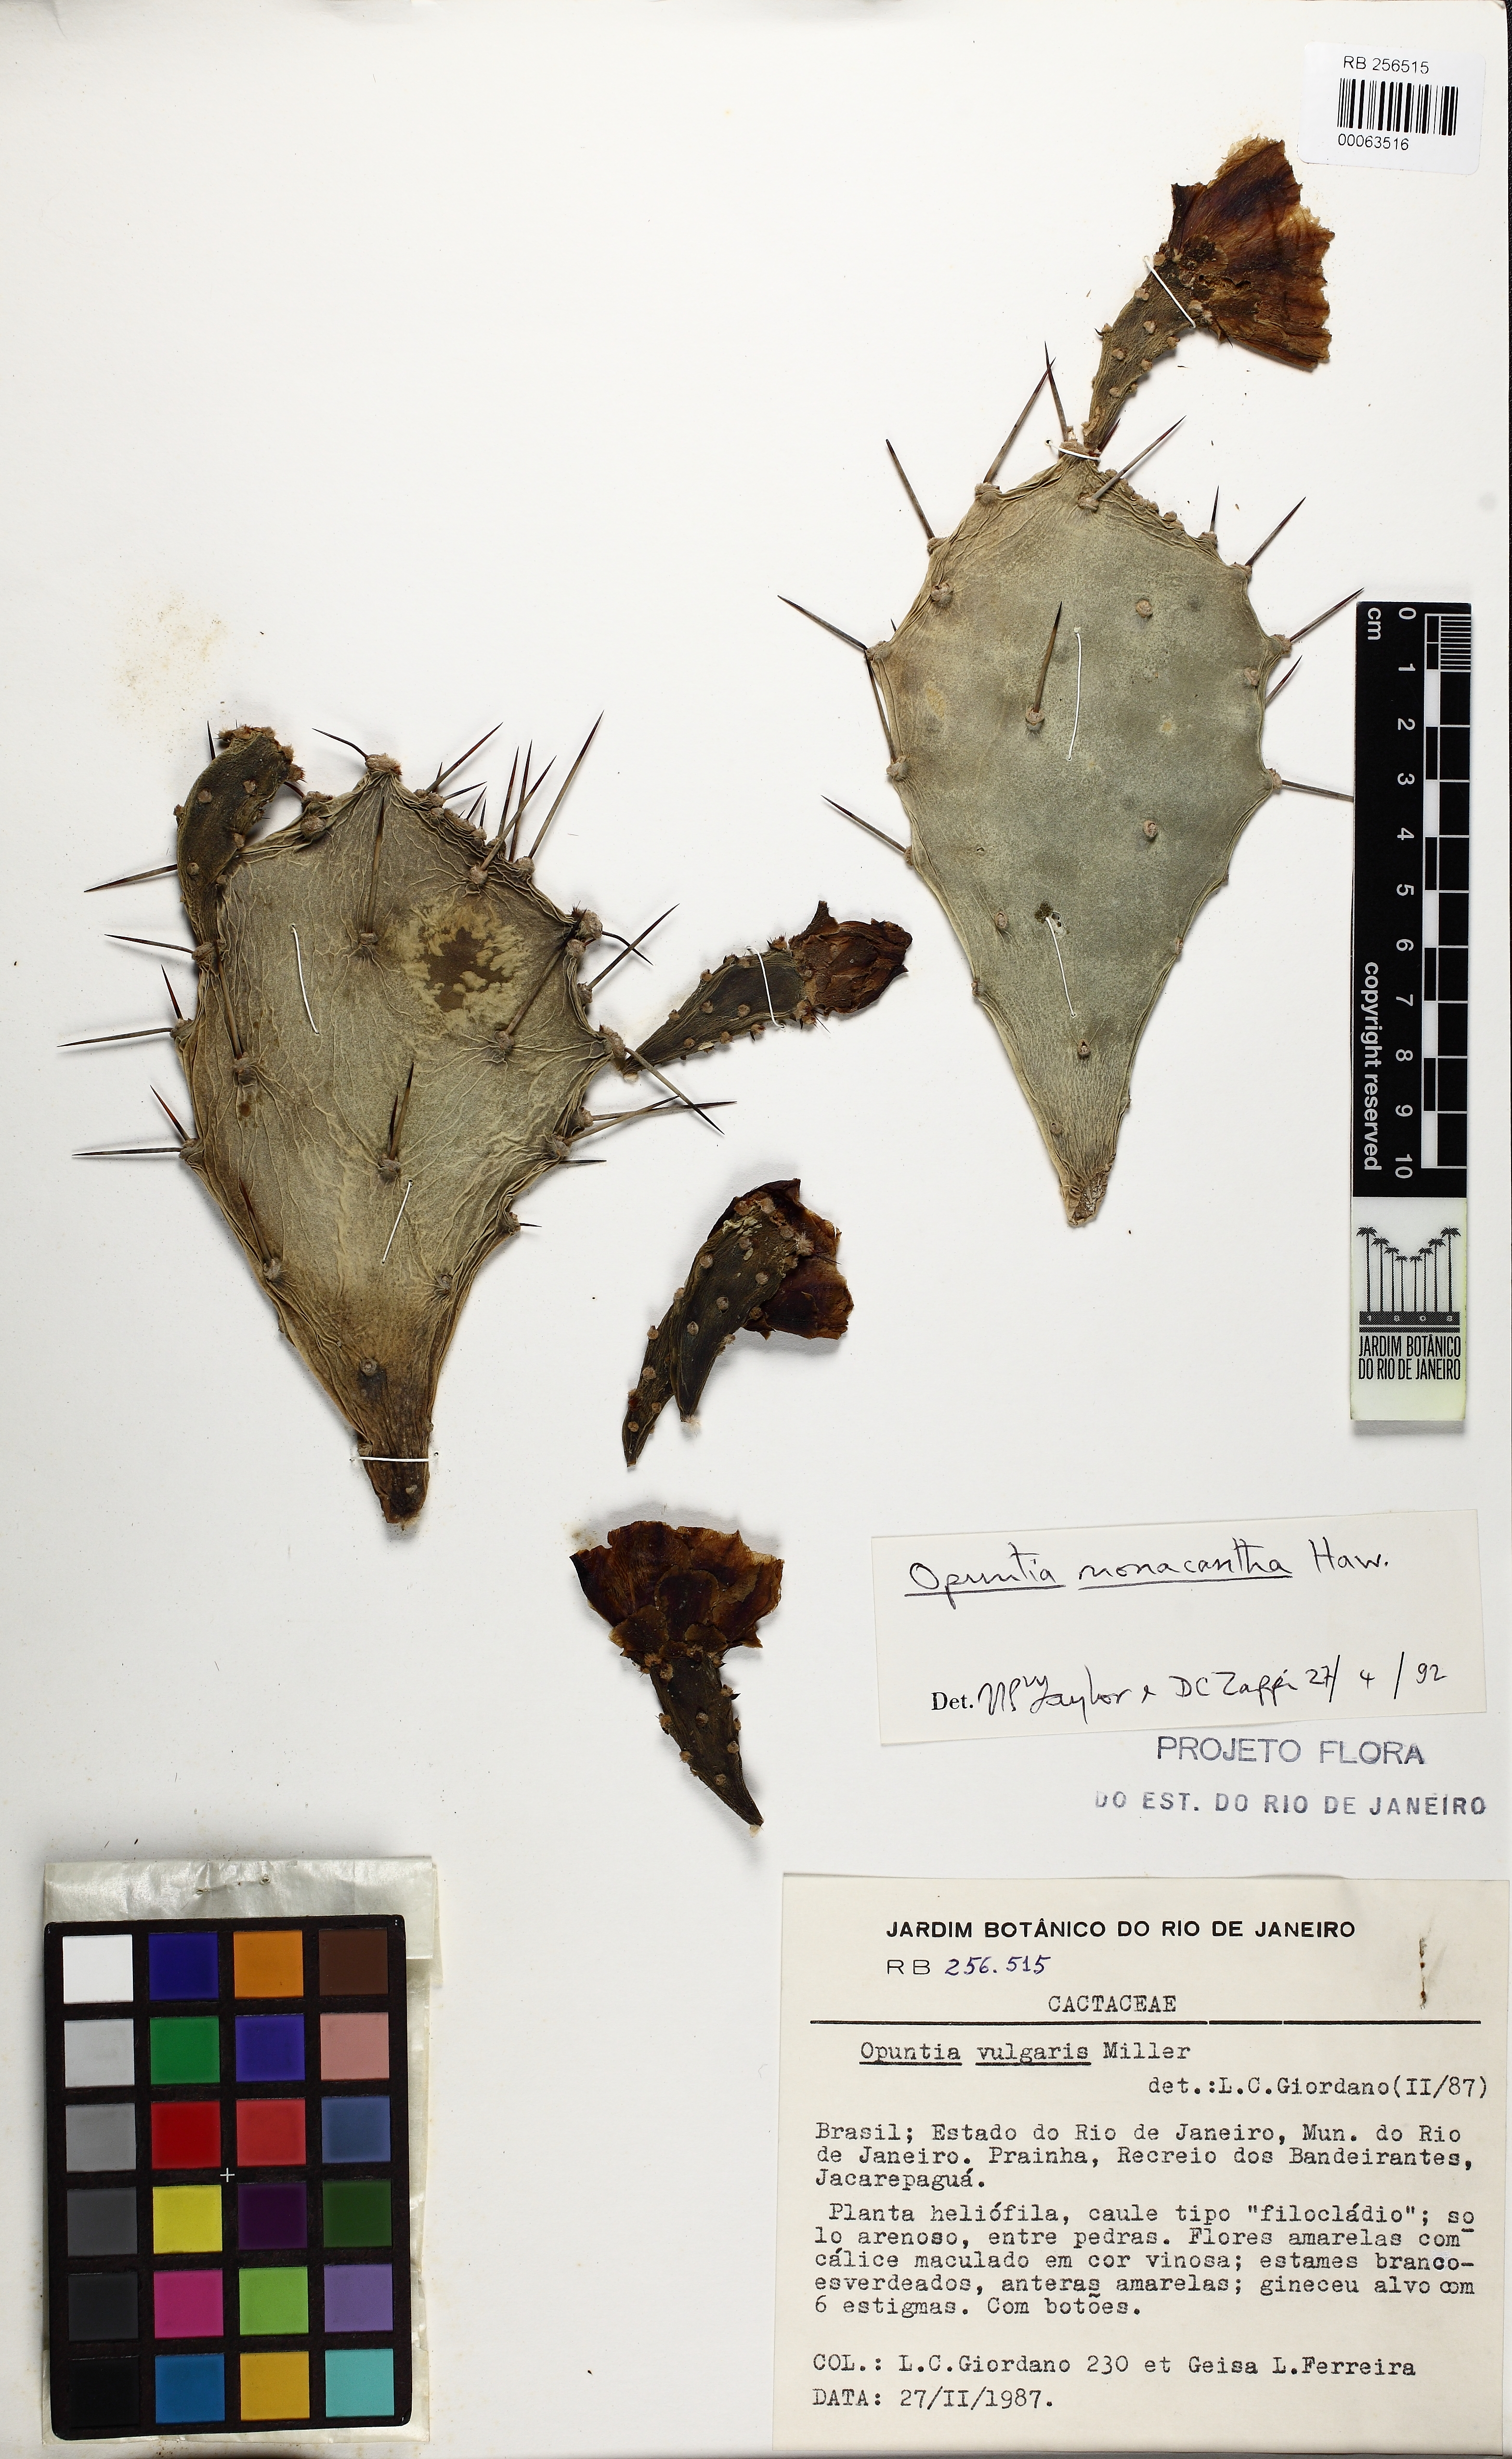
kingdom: Plantae
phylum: Tracheophyta
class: Magnoliopsida
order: Caryophyllales
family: Cactaceae
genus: Opuntia
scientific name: Opuntia monacantha
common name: Common pricklypear
